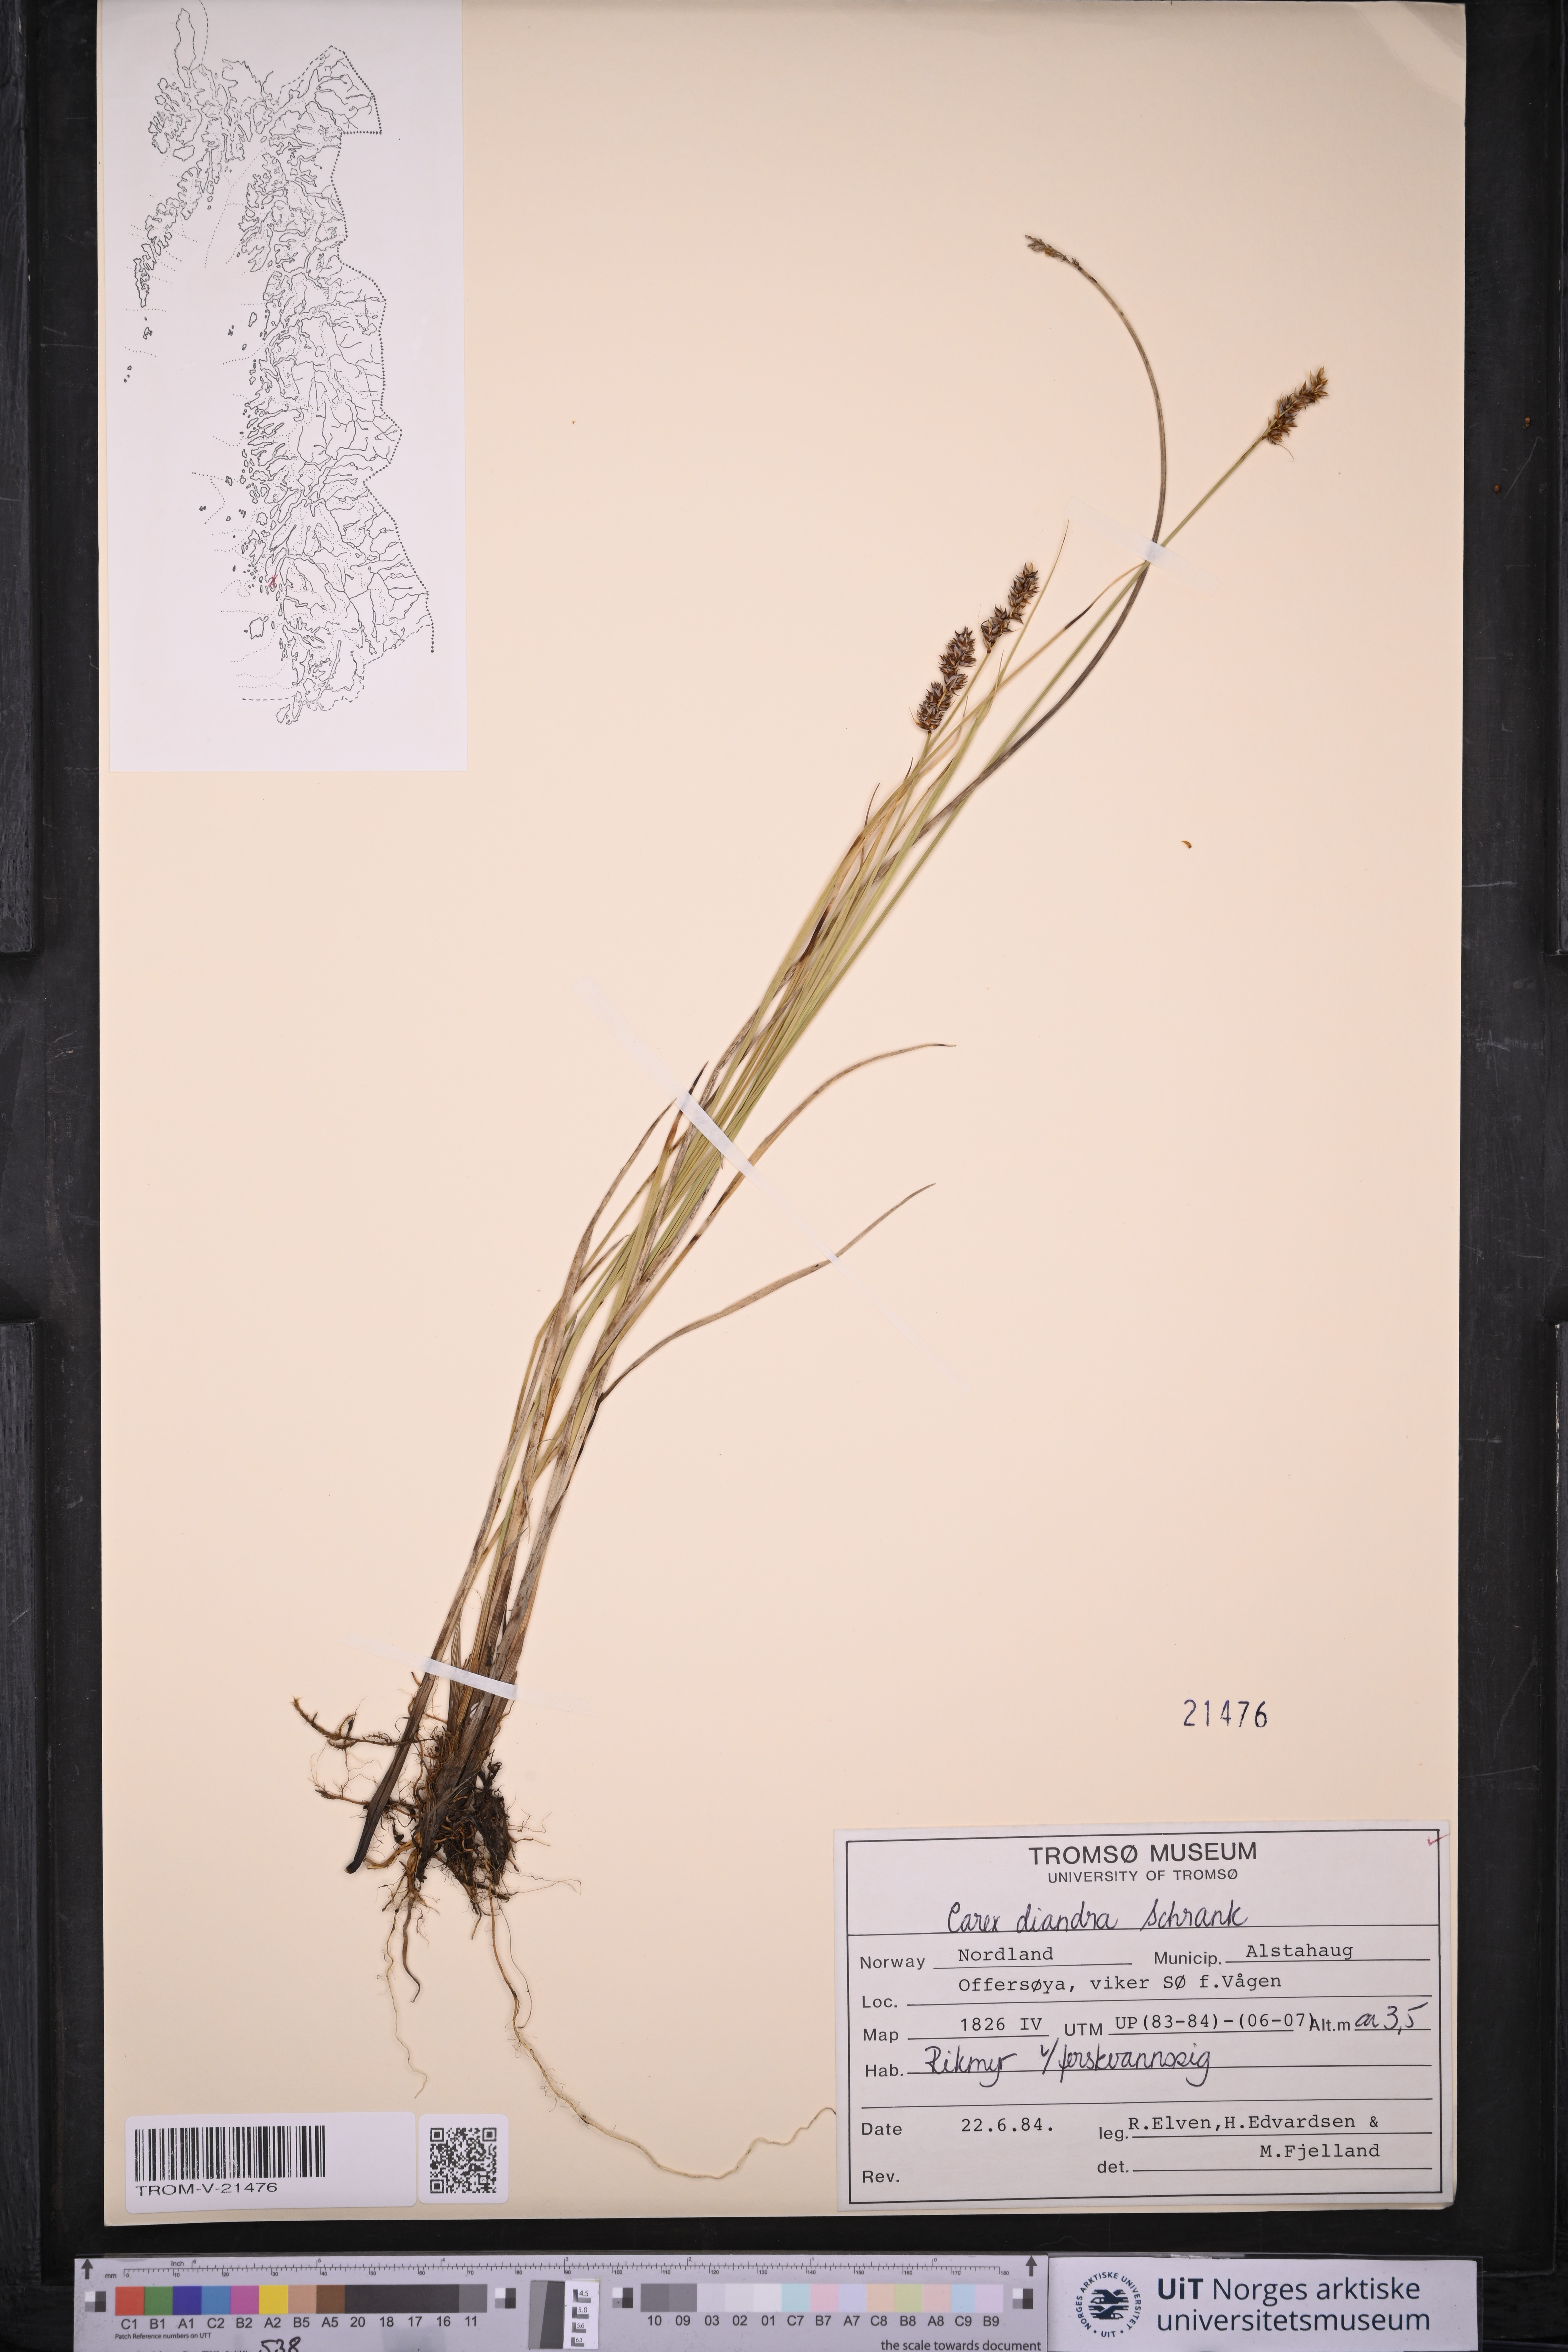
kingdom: Plantae
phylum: Tracheophyta
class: Liliopsida
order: Poales
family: Cyperaceae
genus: Carex
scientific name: Carex diandra
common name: Lesser tussock-sedge
